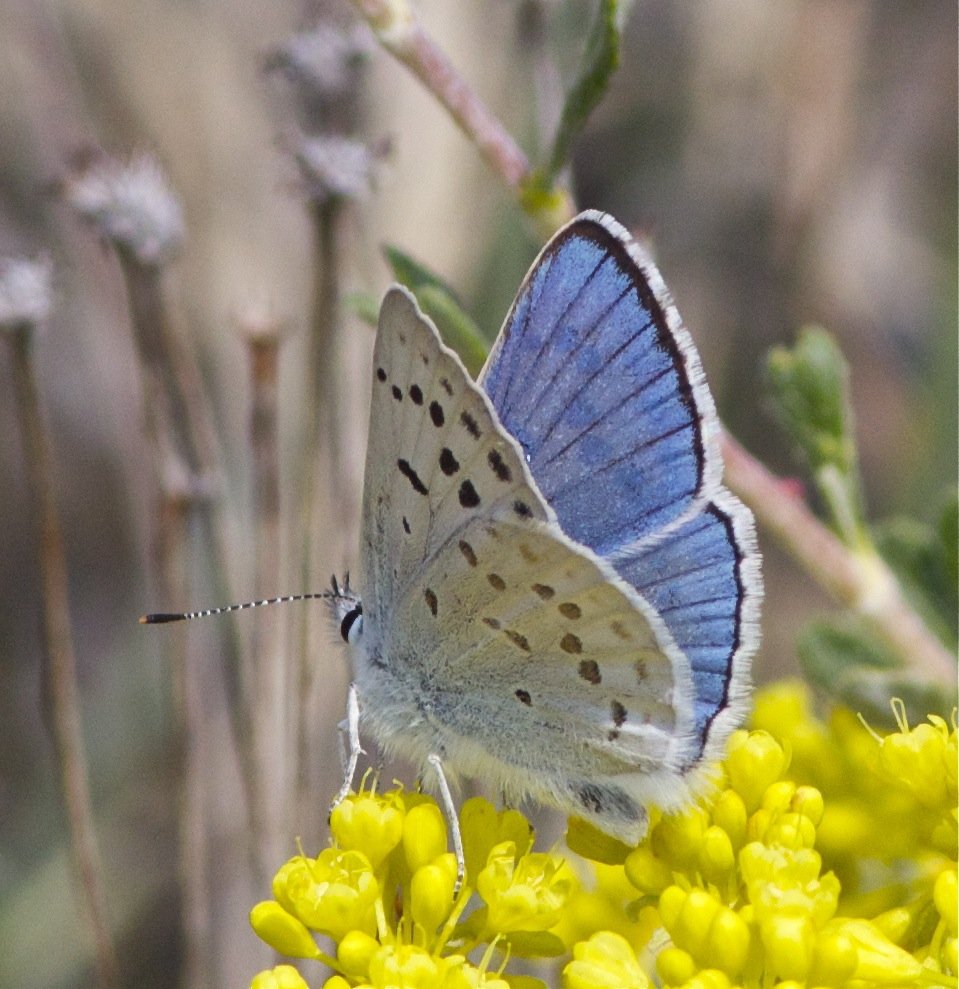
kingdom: Animalia
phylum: Arthropoda
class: Insecta
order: Lepidoptera
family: Lycaenidae
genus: Lycaena
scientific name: Lycaena heteronea
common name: Blue Copper
